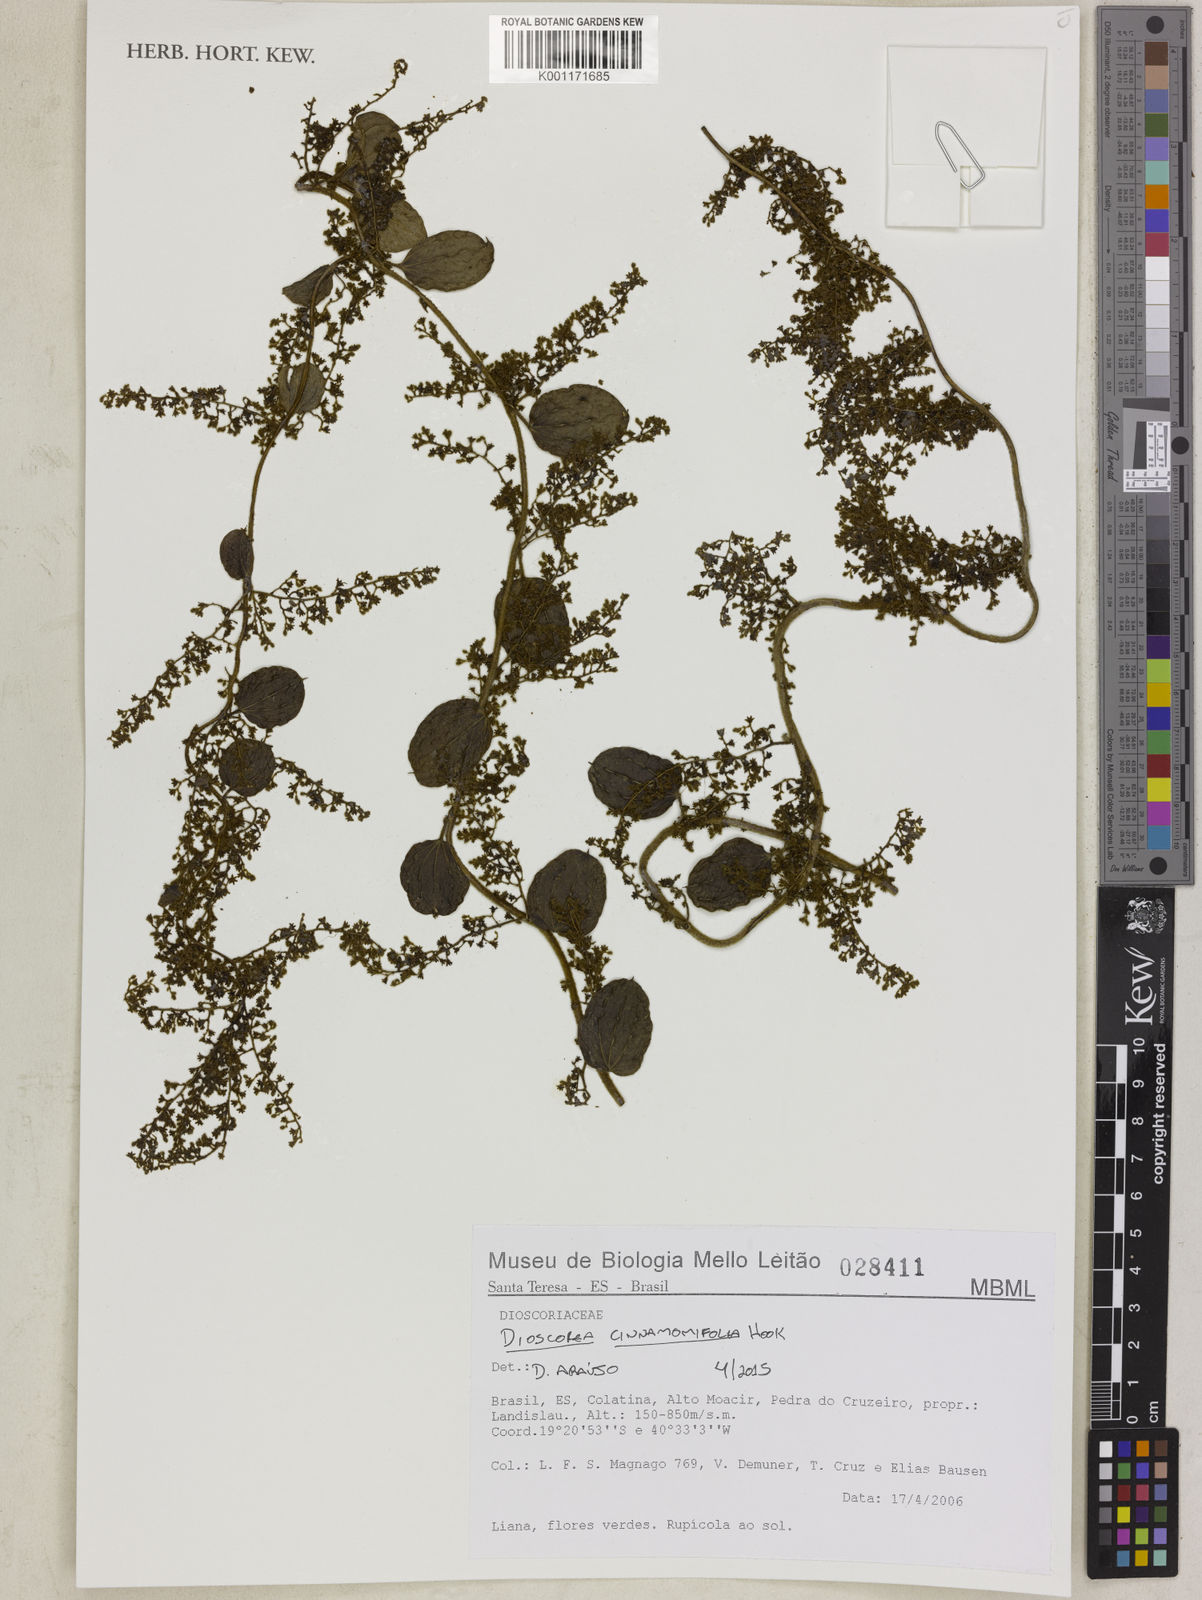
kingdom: Plantae
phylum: Tracheophyta
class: Liliopsida
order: Dioscoreales
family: Dioscoreaceae
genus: Dioscorea
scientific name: Dioscorea cinnamomifolia
